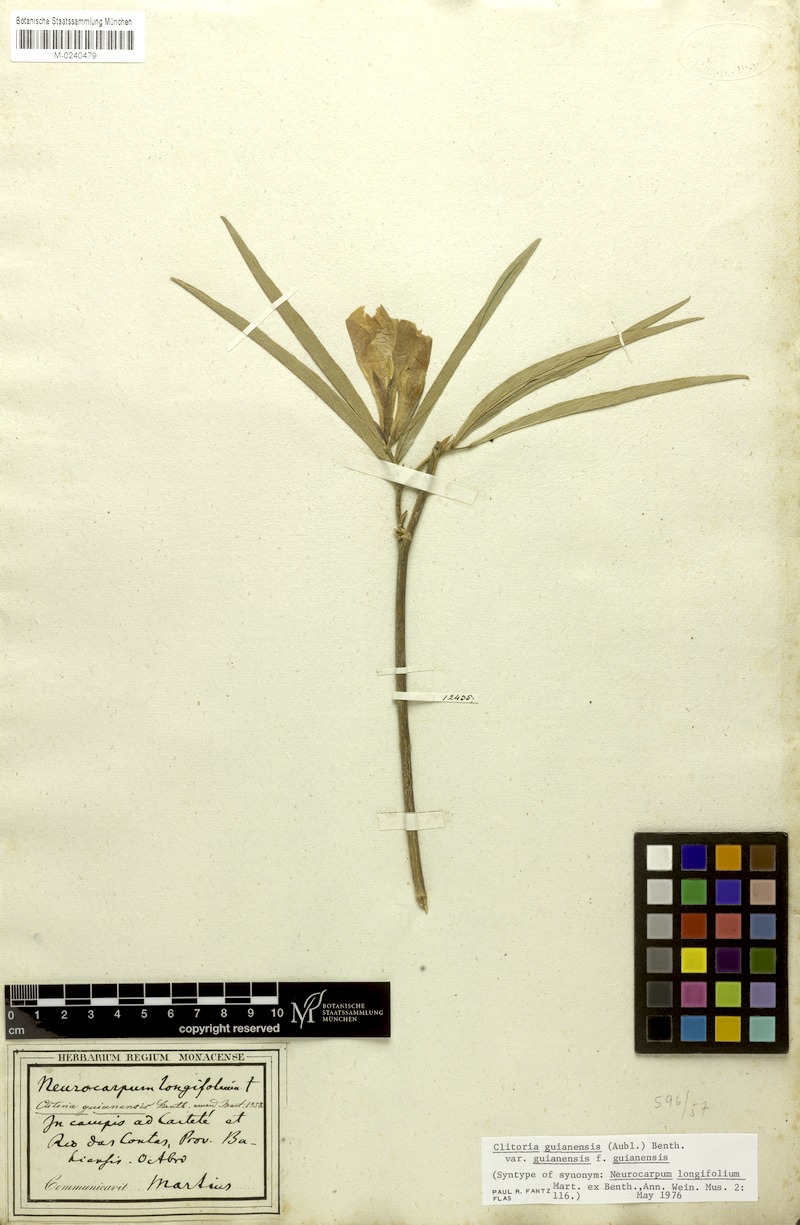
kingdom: Plantae
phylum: Tracheophyta
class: Magnoliopsida
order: Fabales
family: Fabaceae
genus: Clitoria
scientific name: Clitoria guianensis
